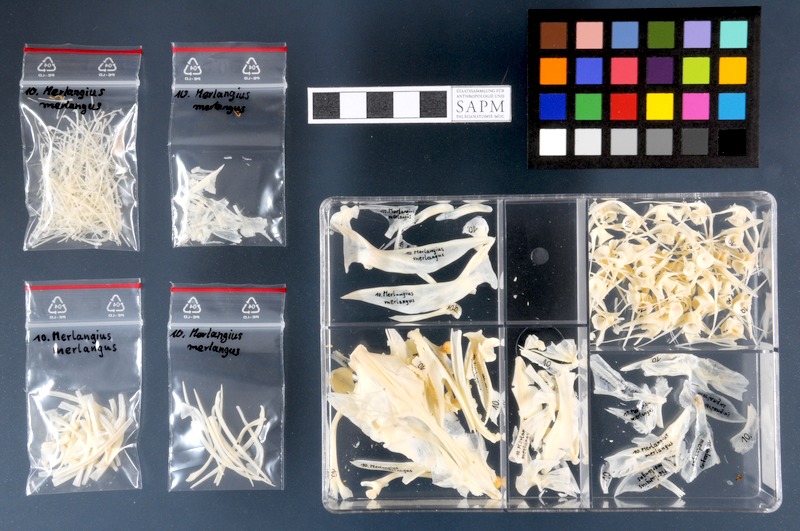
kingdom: Animalia
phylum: Chordata
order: Gadiformes
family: Gadidae
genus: Merlangius
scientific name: Merlangius merlangus
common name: Whiting
